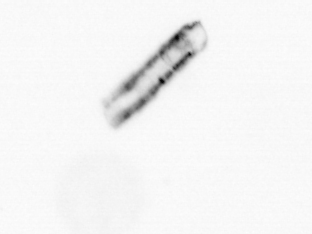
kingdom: Chromista
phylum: Ochrophyta
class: Bacillariophyceae
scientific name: Bacillariophyceae
